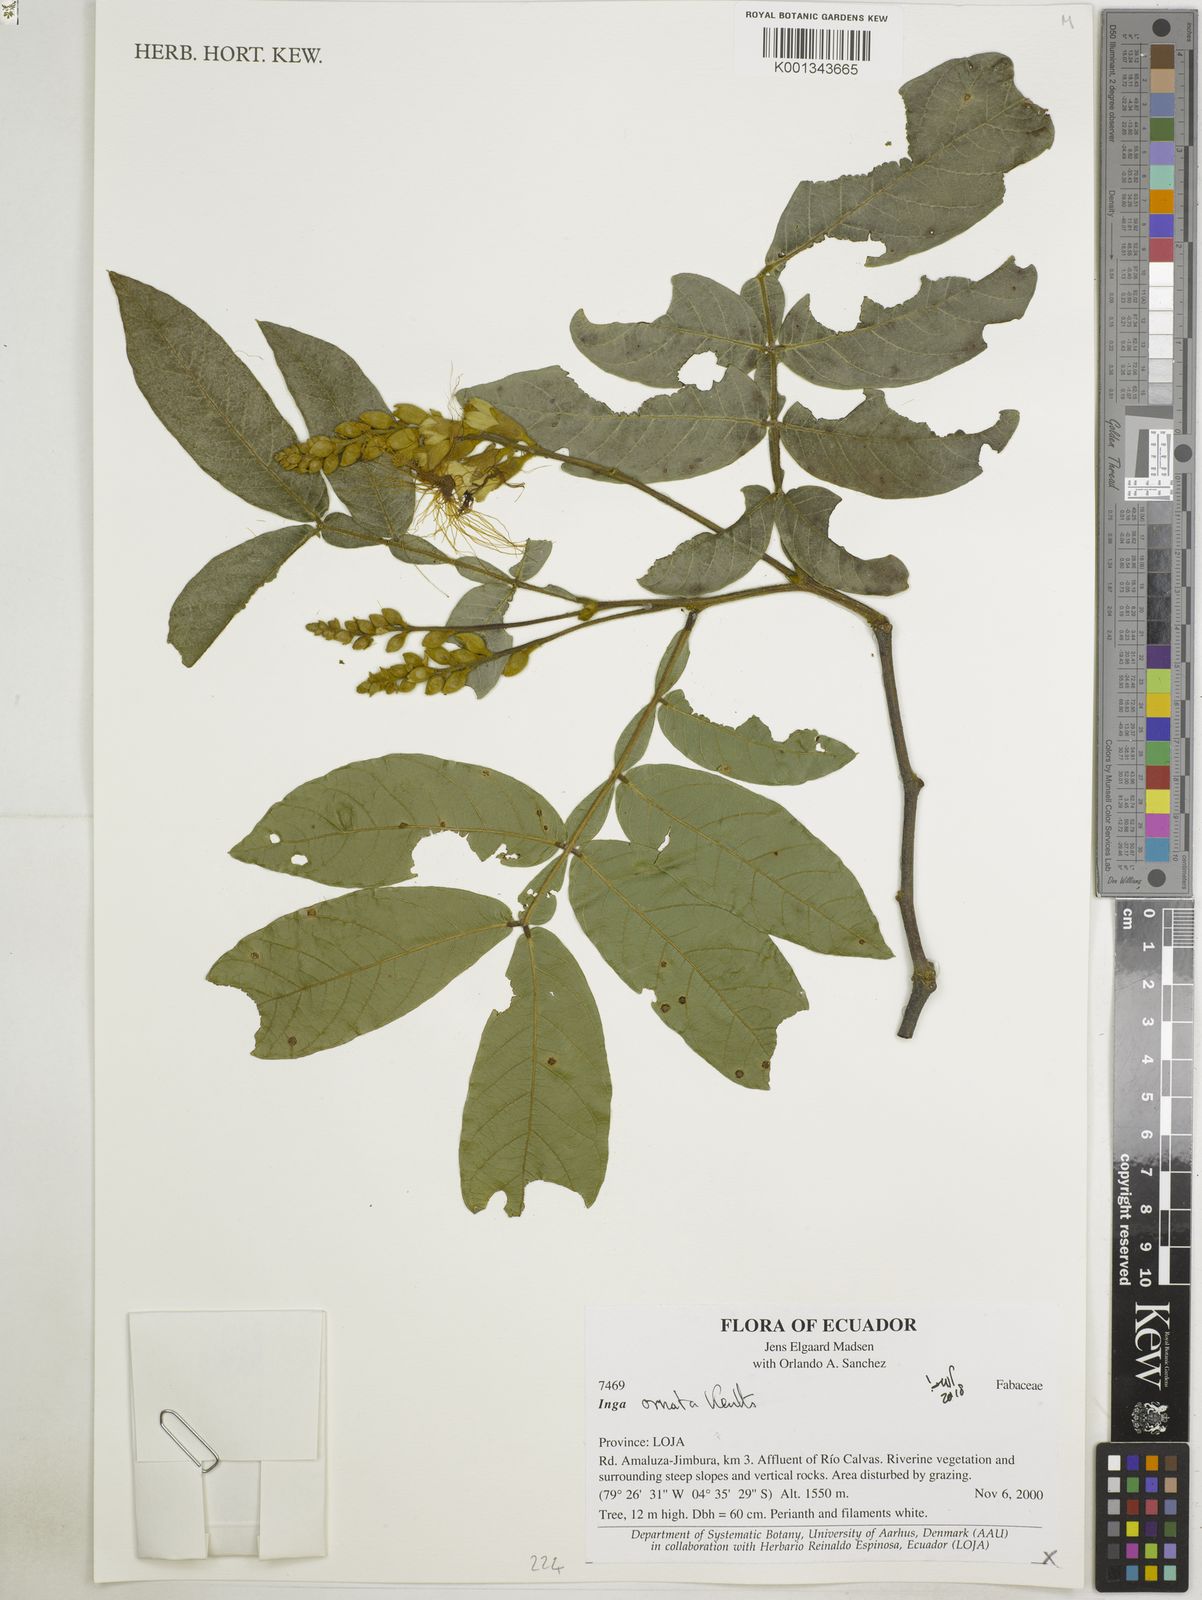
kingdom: Plantae
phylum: Tracheophyta
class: Magnoliopsida
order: Fabales
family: Fabaceae
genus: Inga
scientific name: Inga ornata
